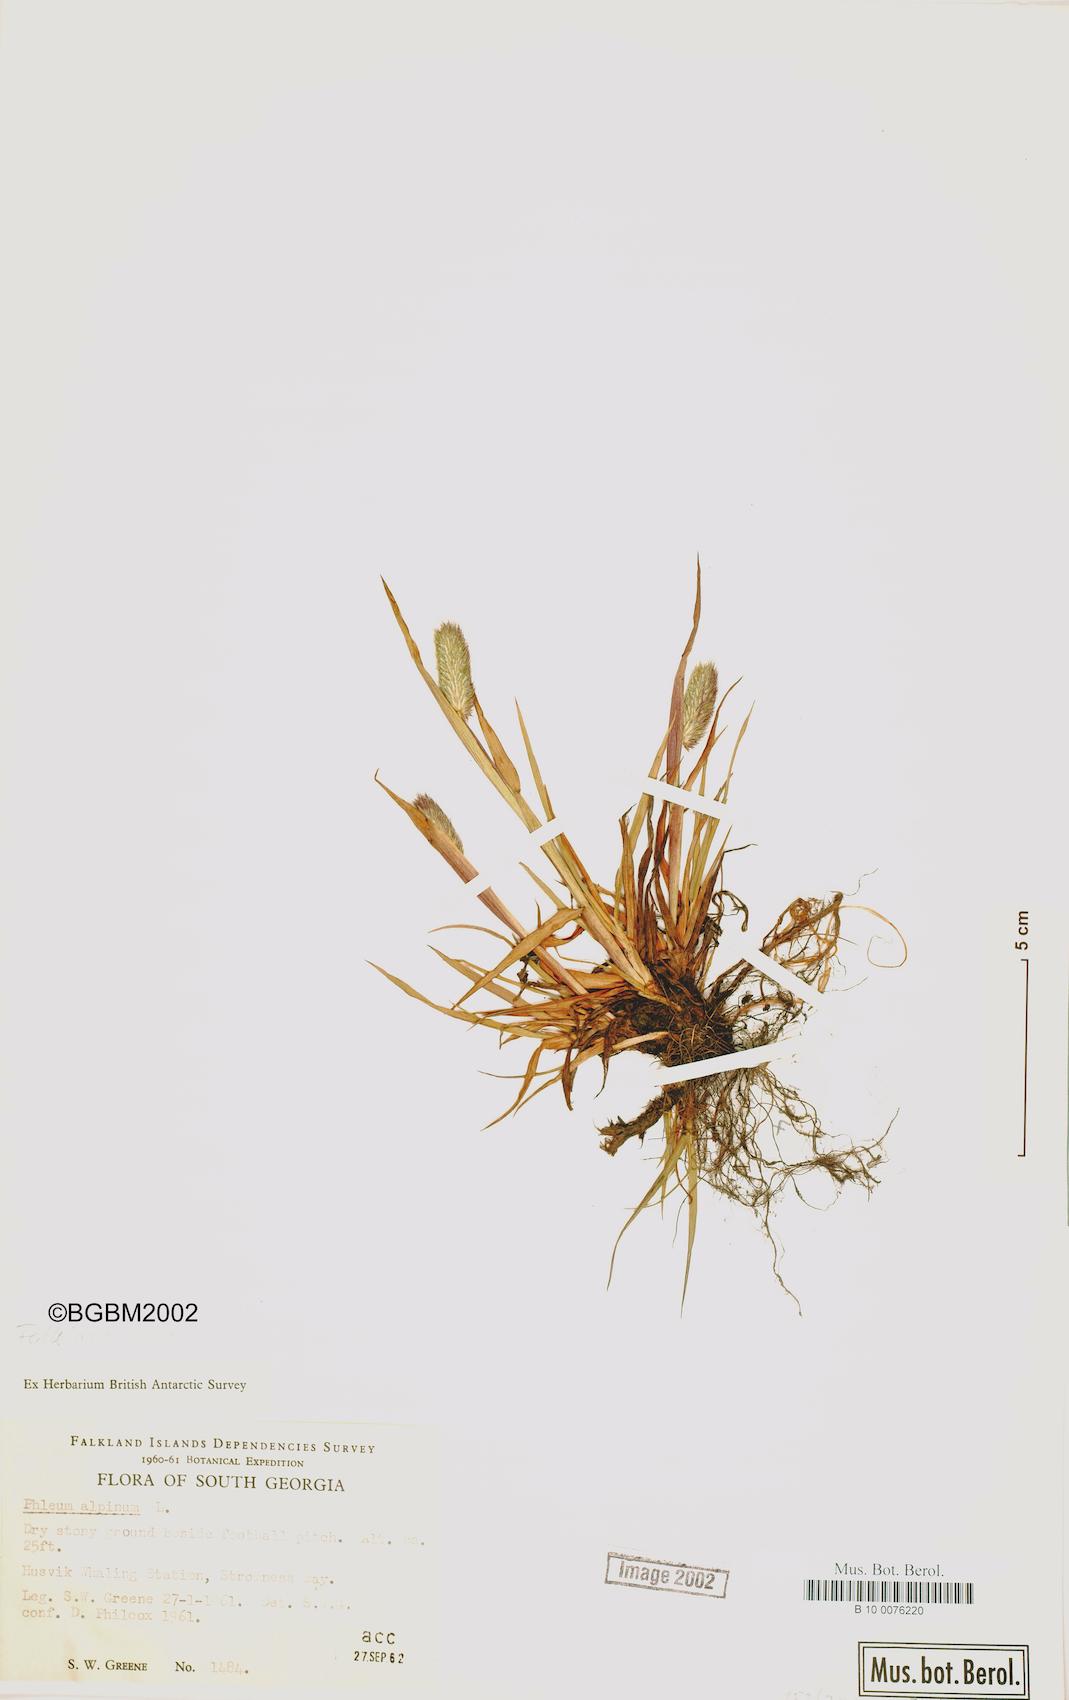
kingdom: Plantae
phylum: Tracheophyta
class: Liliopsida
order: Poales
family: Poaceae
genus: Phleum
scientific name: Phleum alpinum
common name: Alpine cat's-tail
